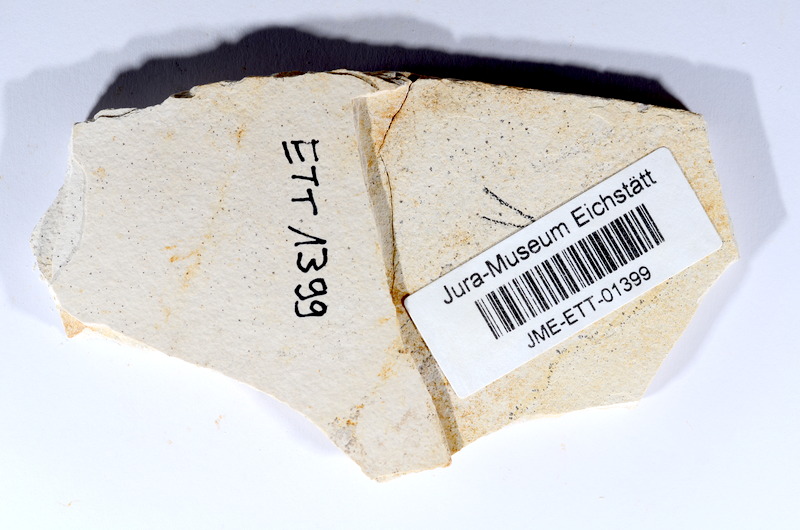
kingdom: Animalia
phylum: Chordata
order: Salmoniformes
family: Orthogonikleithridae
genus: Orthogonikleithrus
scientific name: Orthogonikleithrus hoelli
